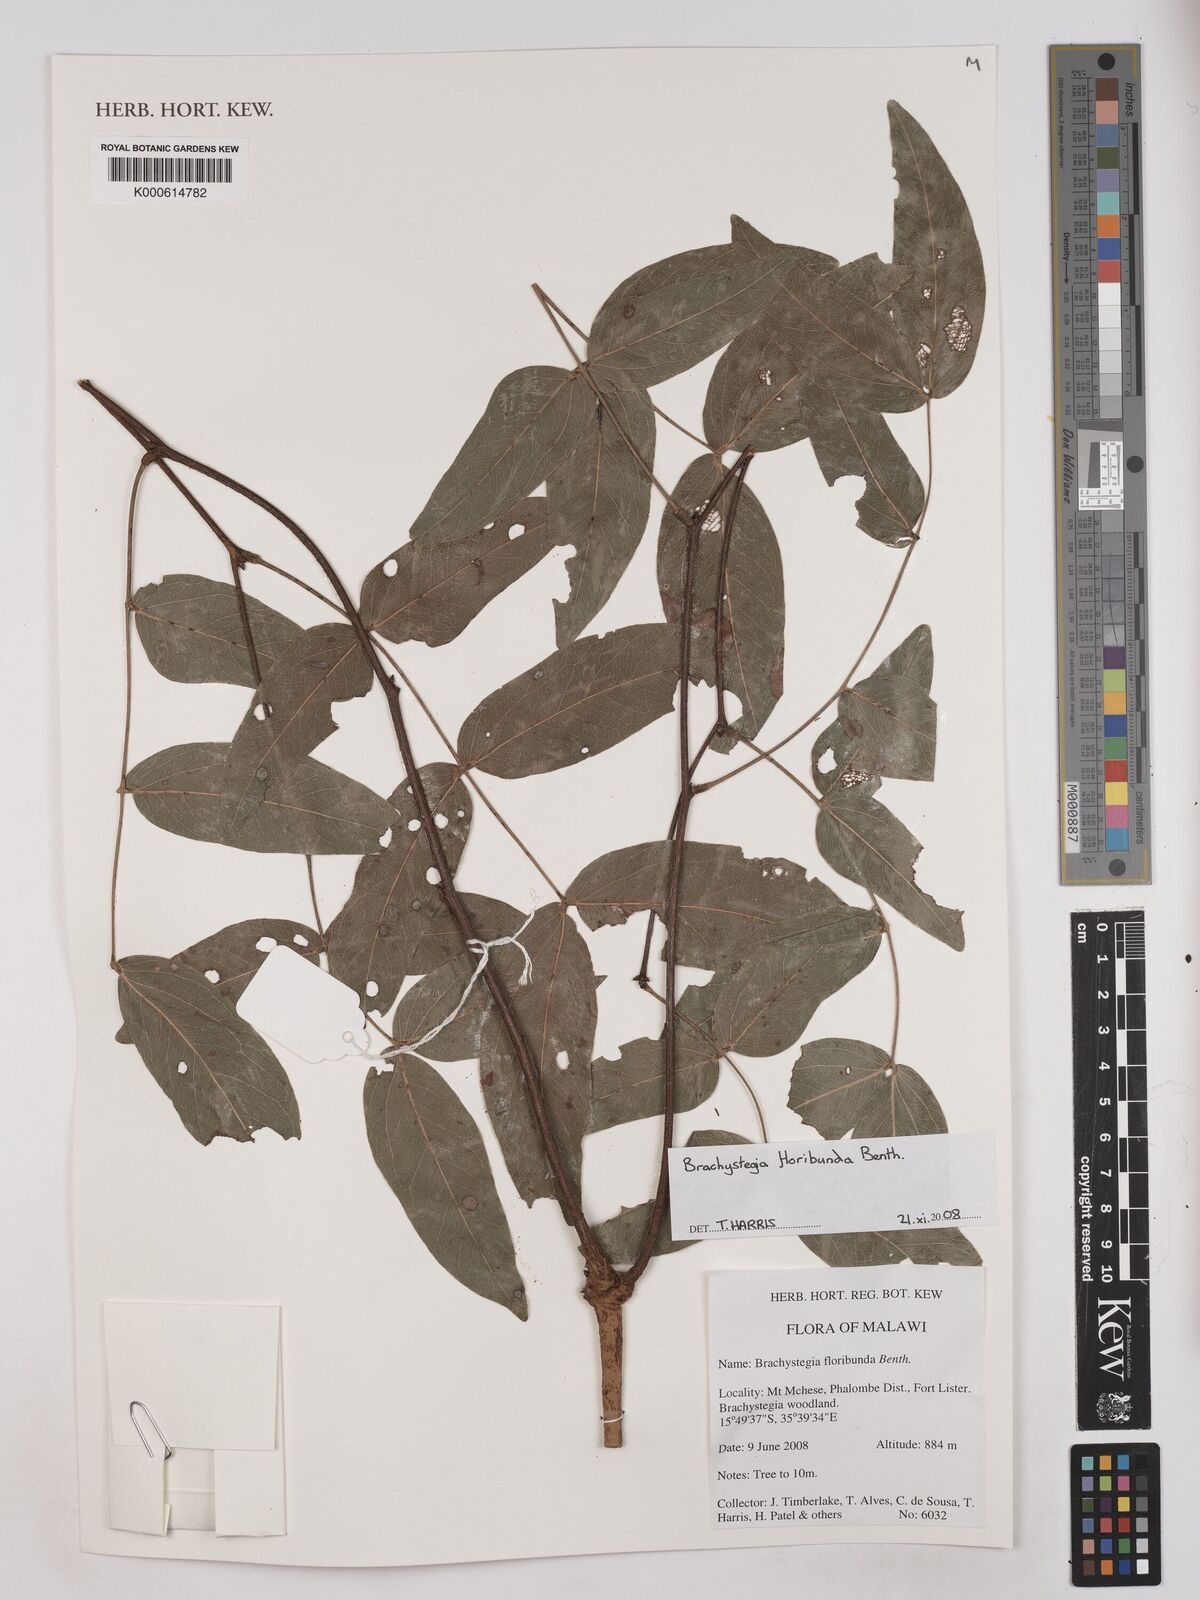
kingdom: Plantae
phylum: Tracheophyta
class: Magnoliopsida
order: Fabales
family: Fabaceae
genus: Brachystegia
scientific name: Brachystegia floribunda
